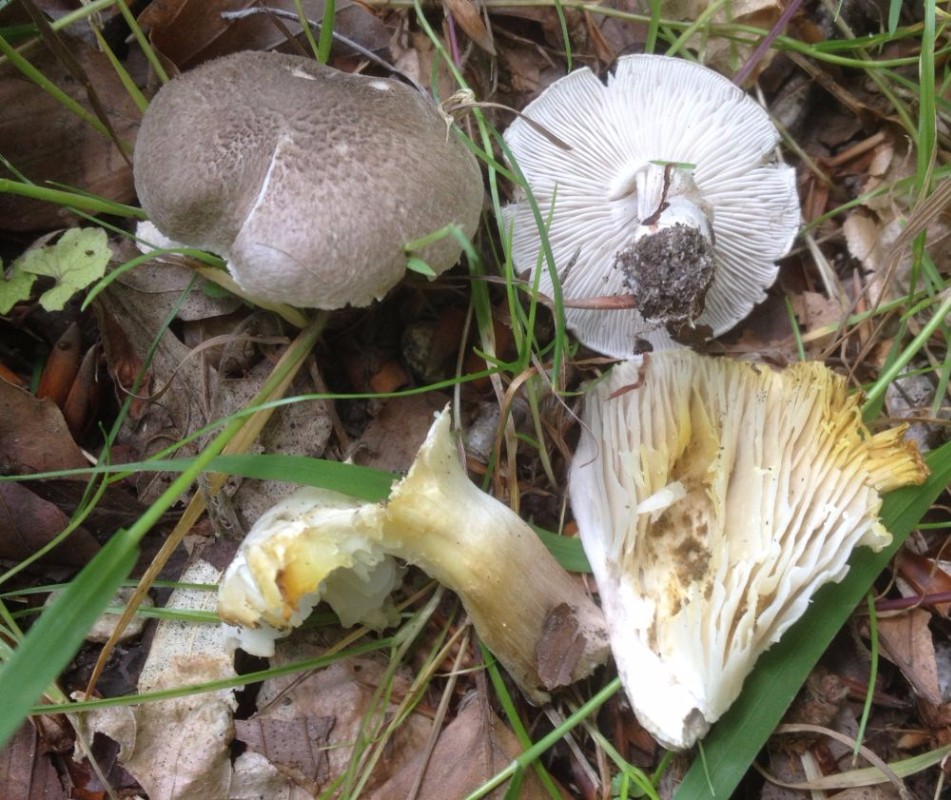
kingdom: Fungi
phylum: Basidiomycota
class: Agaricomycetes
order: Agaricales
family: Tricholomataceae
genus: Tricholoma
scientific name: Tricholoma scalpturatum
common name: gulplettet ridderhat
